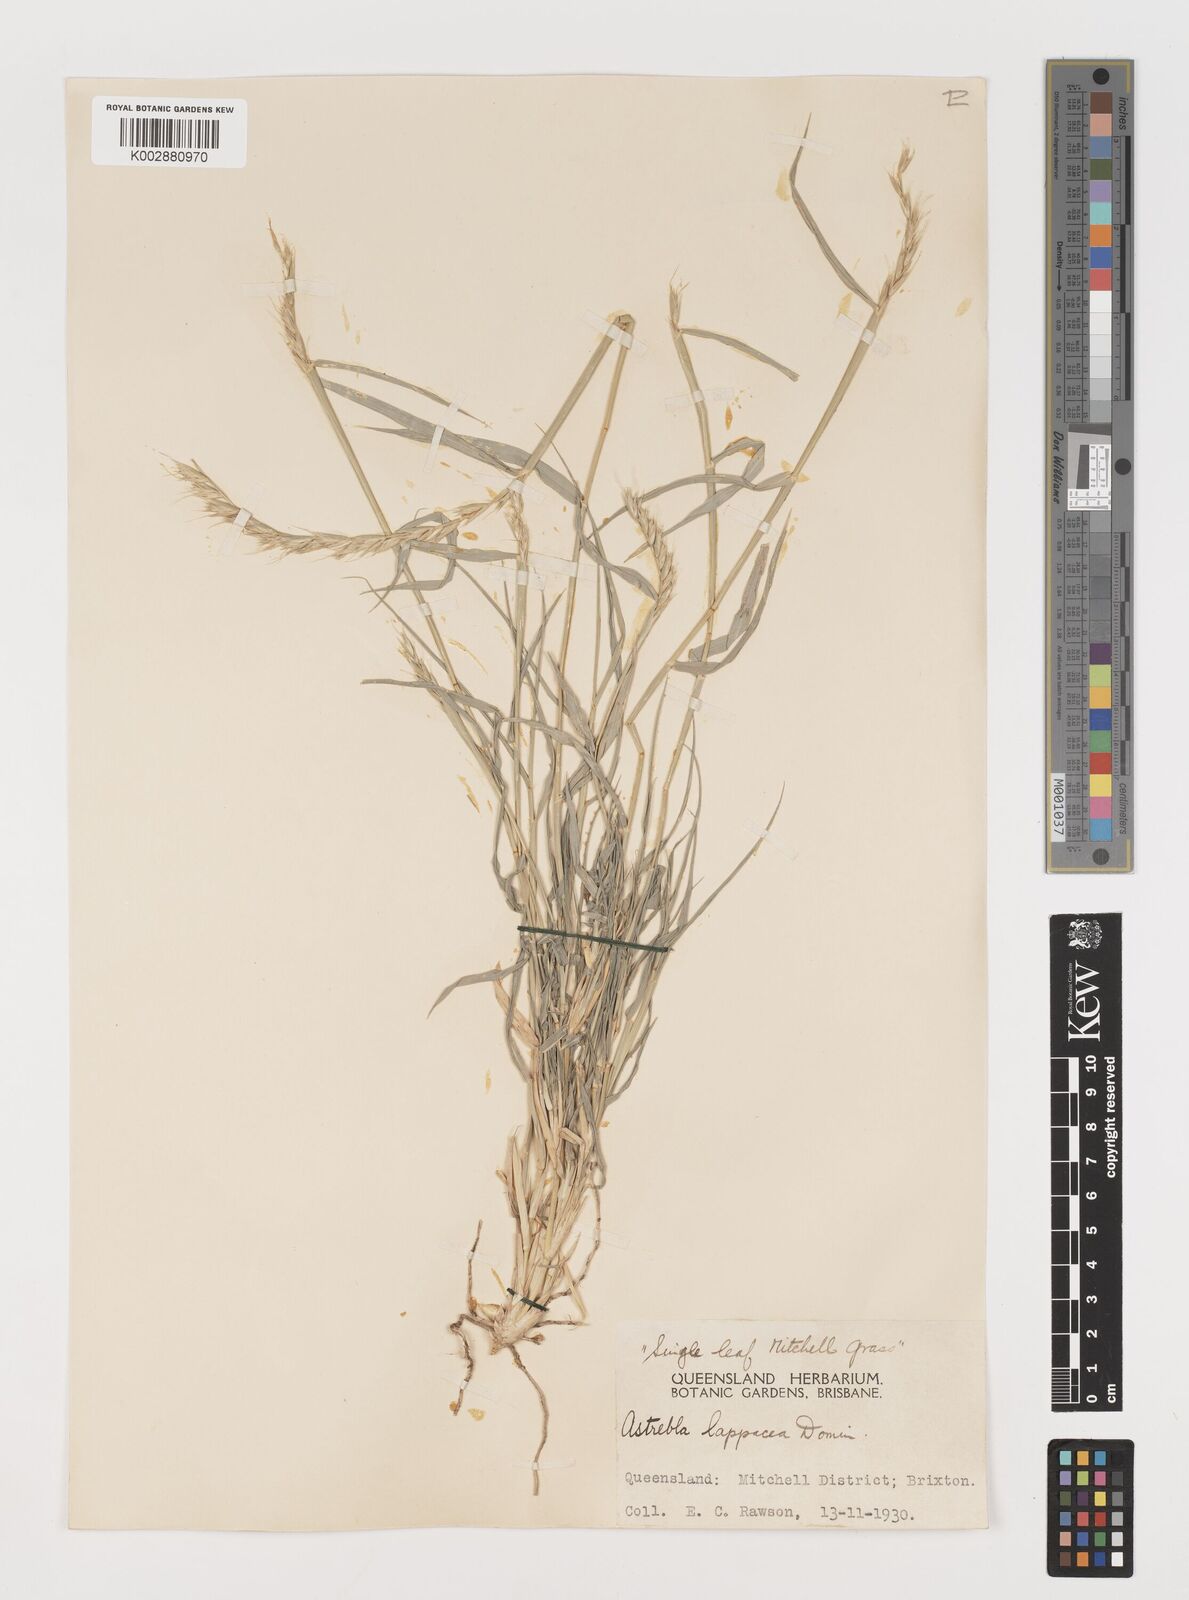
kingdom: Plantae
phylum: Tracheophyta
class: Liliopsida
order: Poales
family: Poaceae
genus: Astrebla
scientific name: Astrebla lappacea
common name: Curly mitchell grass
